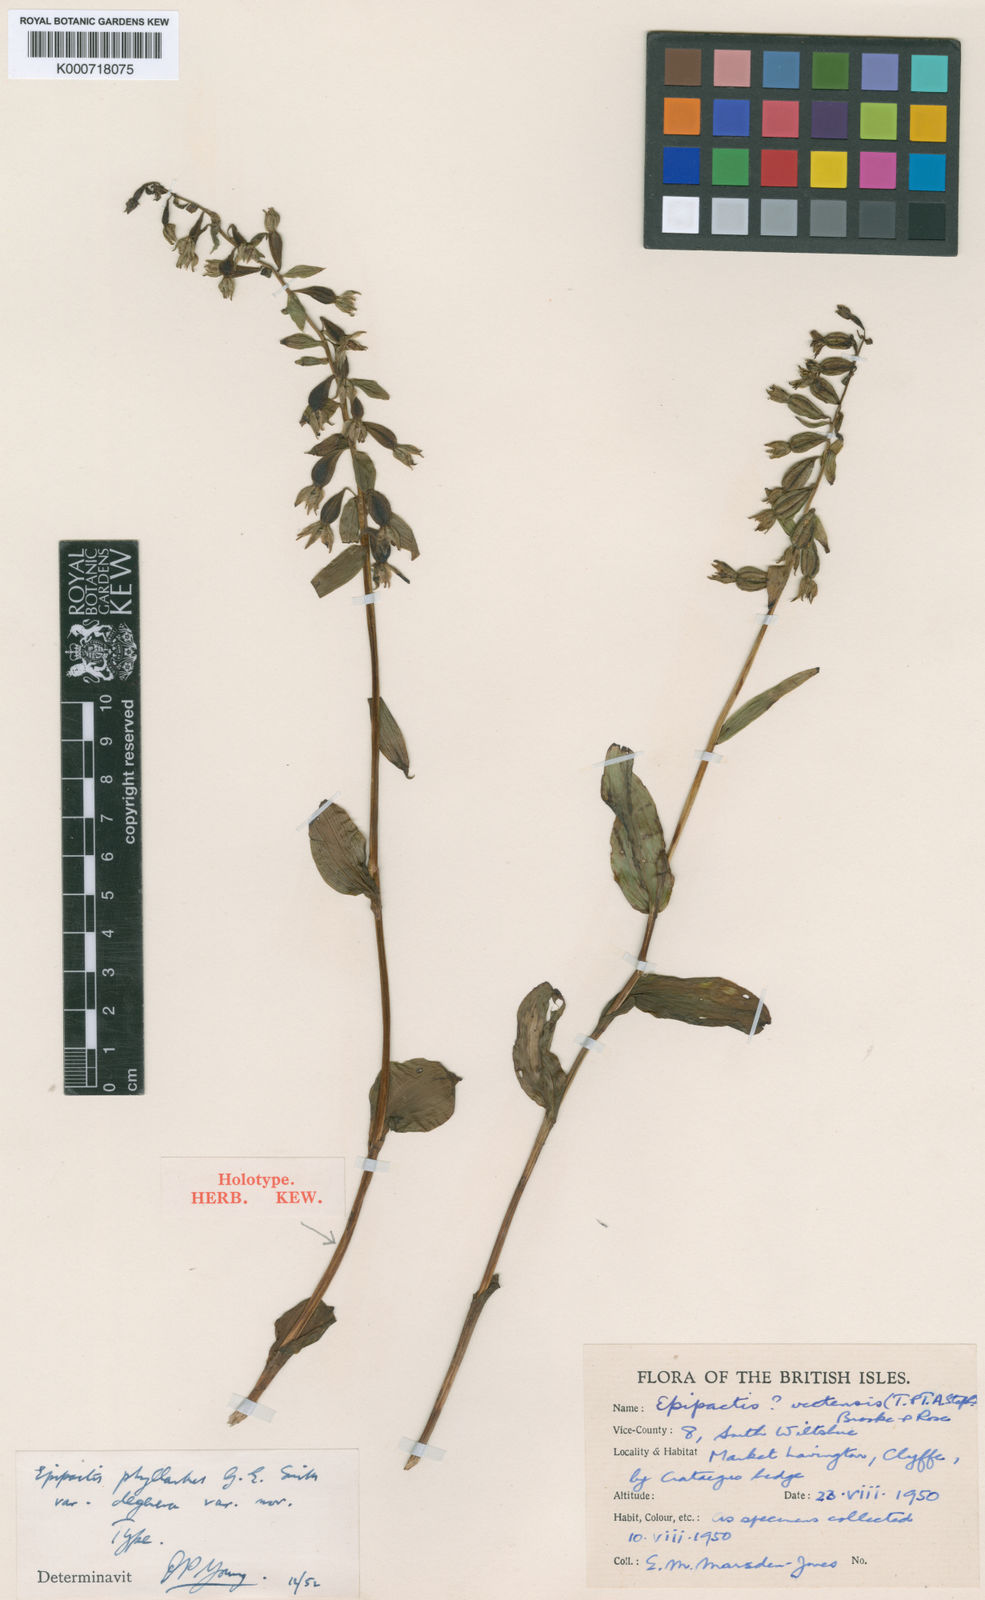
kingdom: Plantae
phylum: Tracheophyta
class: Liliopsida
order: Asparagales
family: Orchidaceae
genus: Epipactis
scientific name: Epipactis
